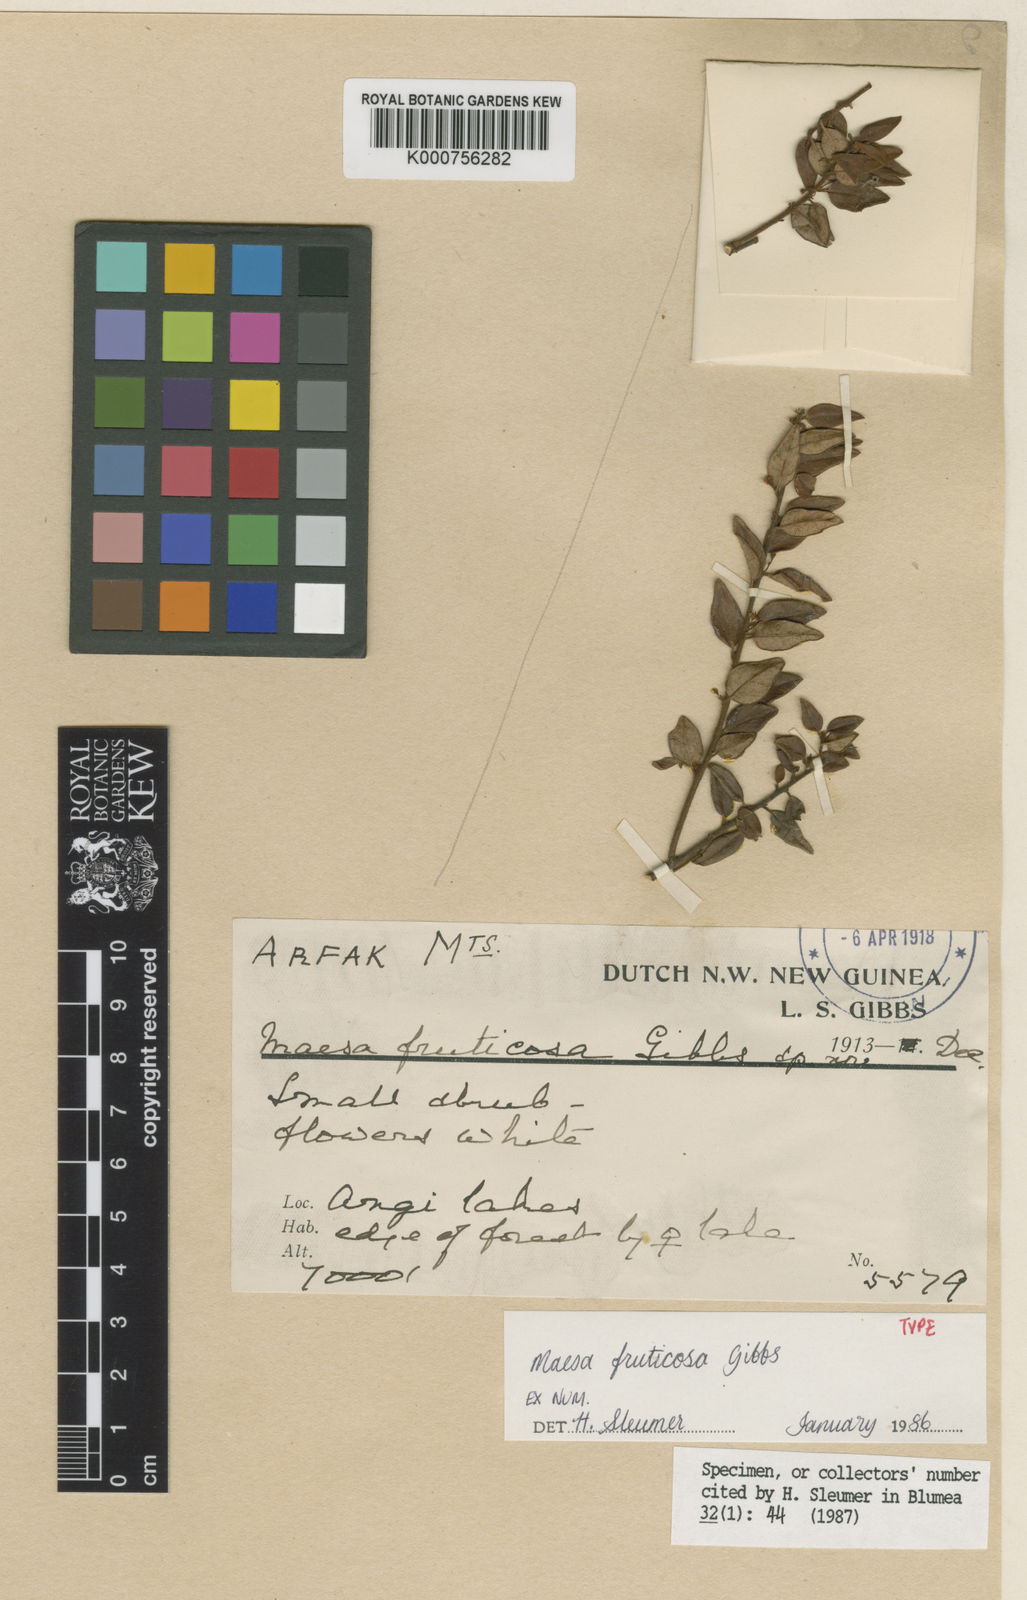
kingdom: Plantae
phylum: Tracheophyta
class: Magnoliopsida
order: Ericales
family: Primulaceae
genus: Maesa
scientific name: Maesa fruticosa
